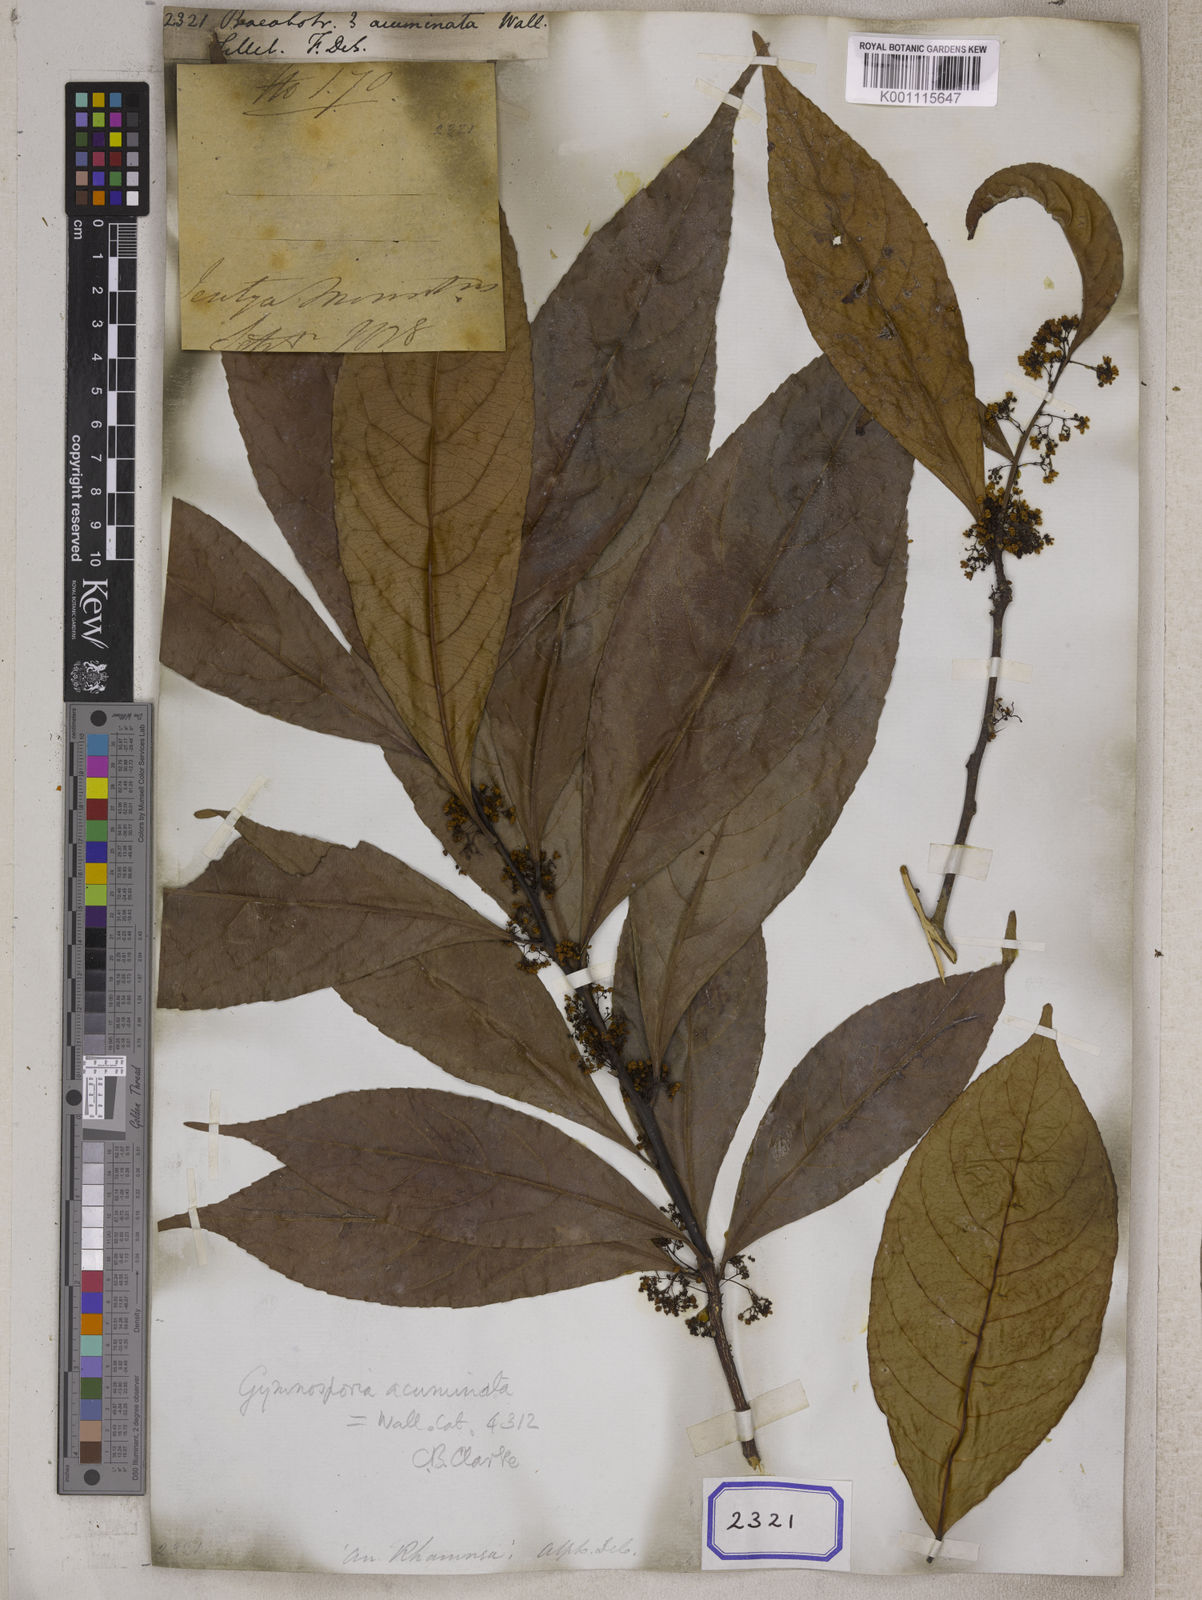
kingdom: Plantae
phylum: Tracheophyta
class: Magnoliopsida
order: Ericales
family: Primulaceae
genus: Maesa
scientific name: Maesa
